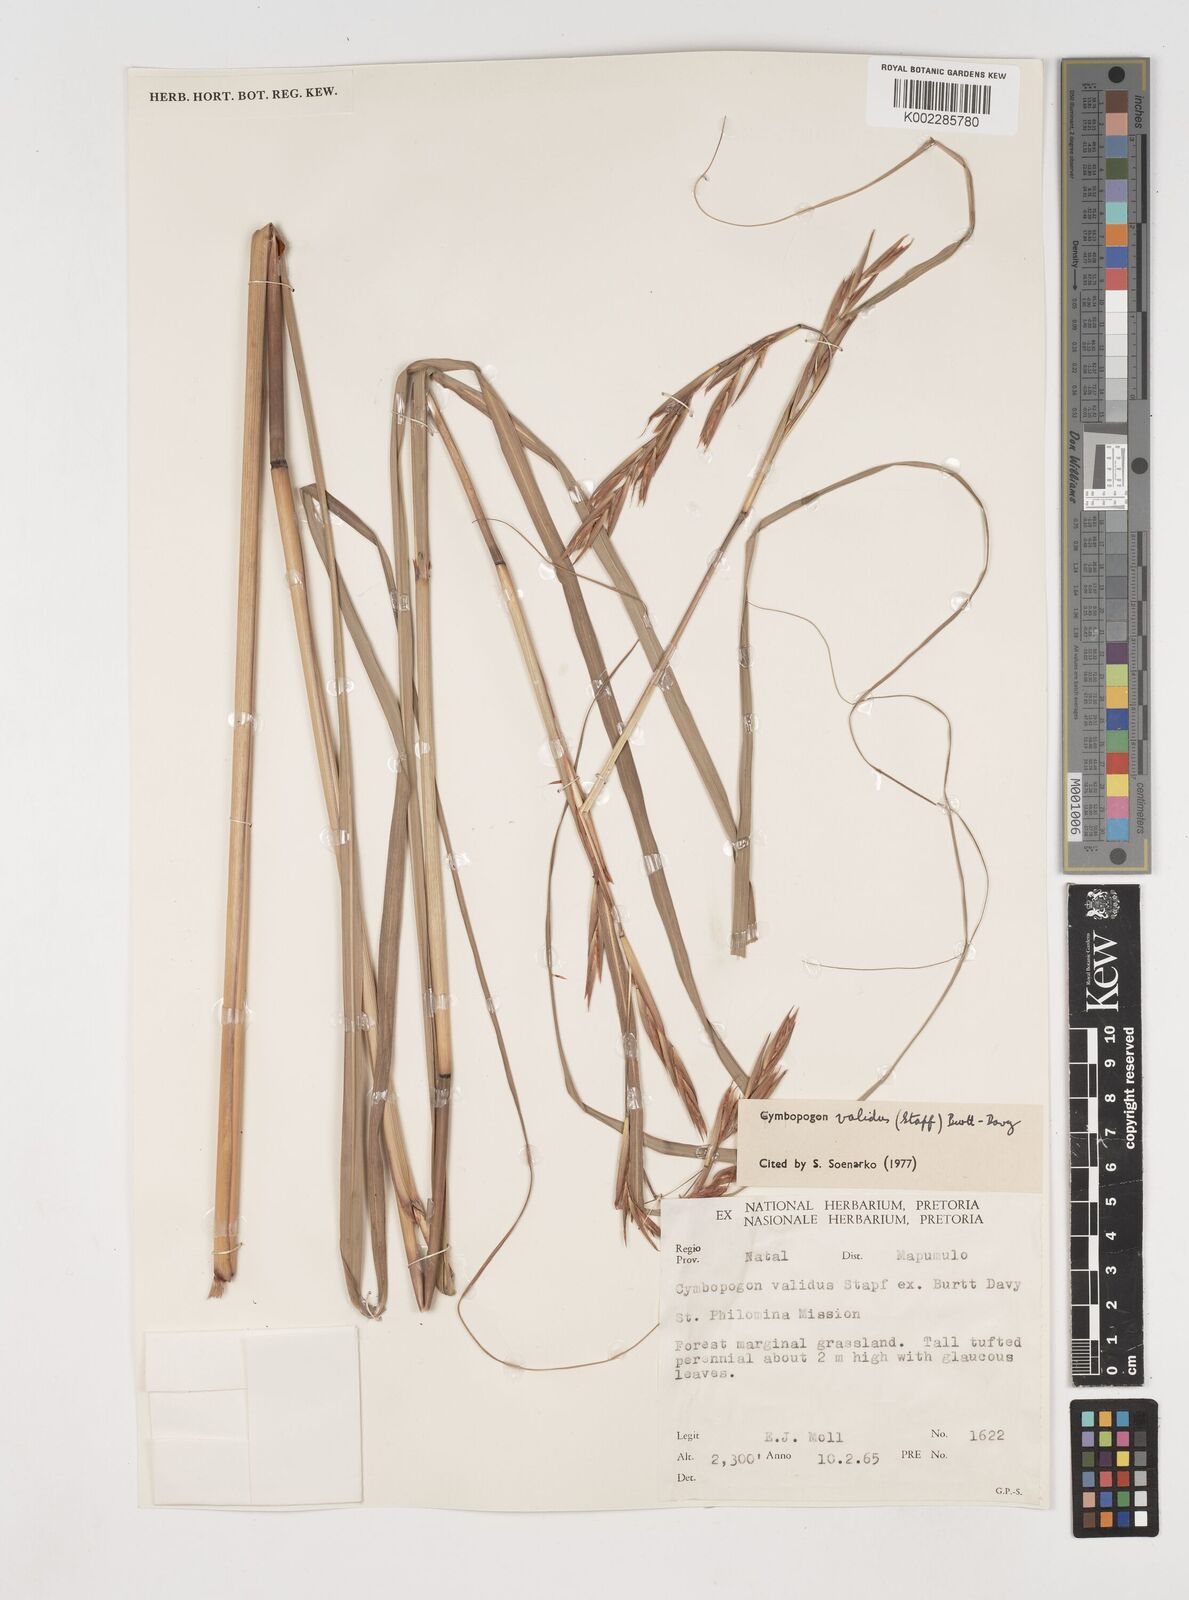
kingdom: Plantae
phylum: Tracheophyta
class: Liliopsida
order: Poales
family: Poaceae
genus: Cymbopogon
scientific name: Cymbopogon nardus
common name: Giant turpentine grass
